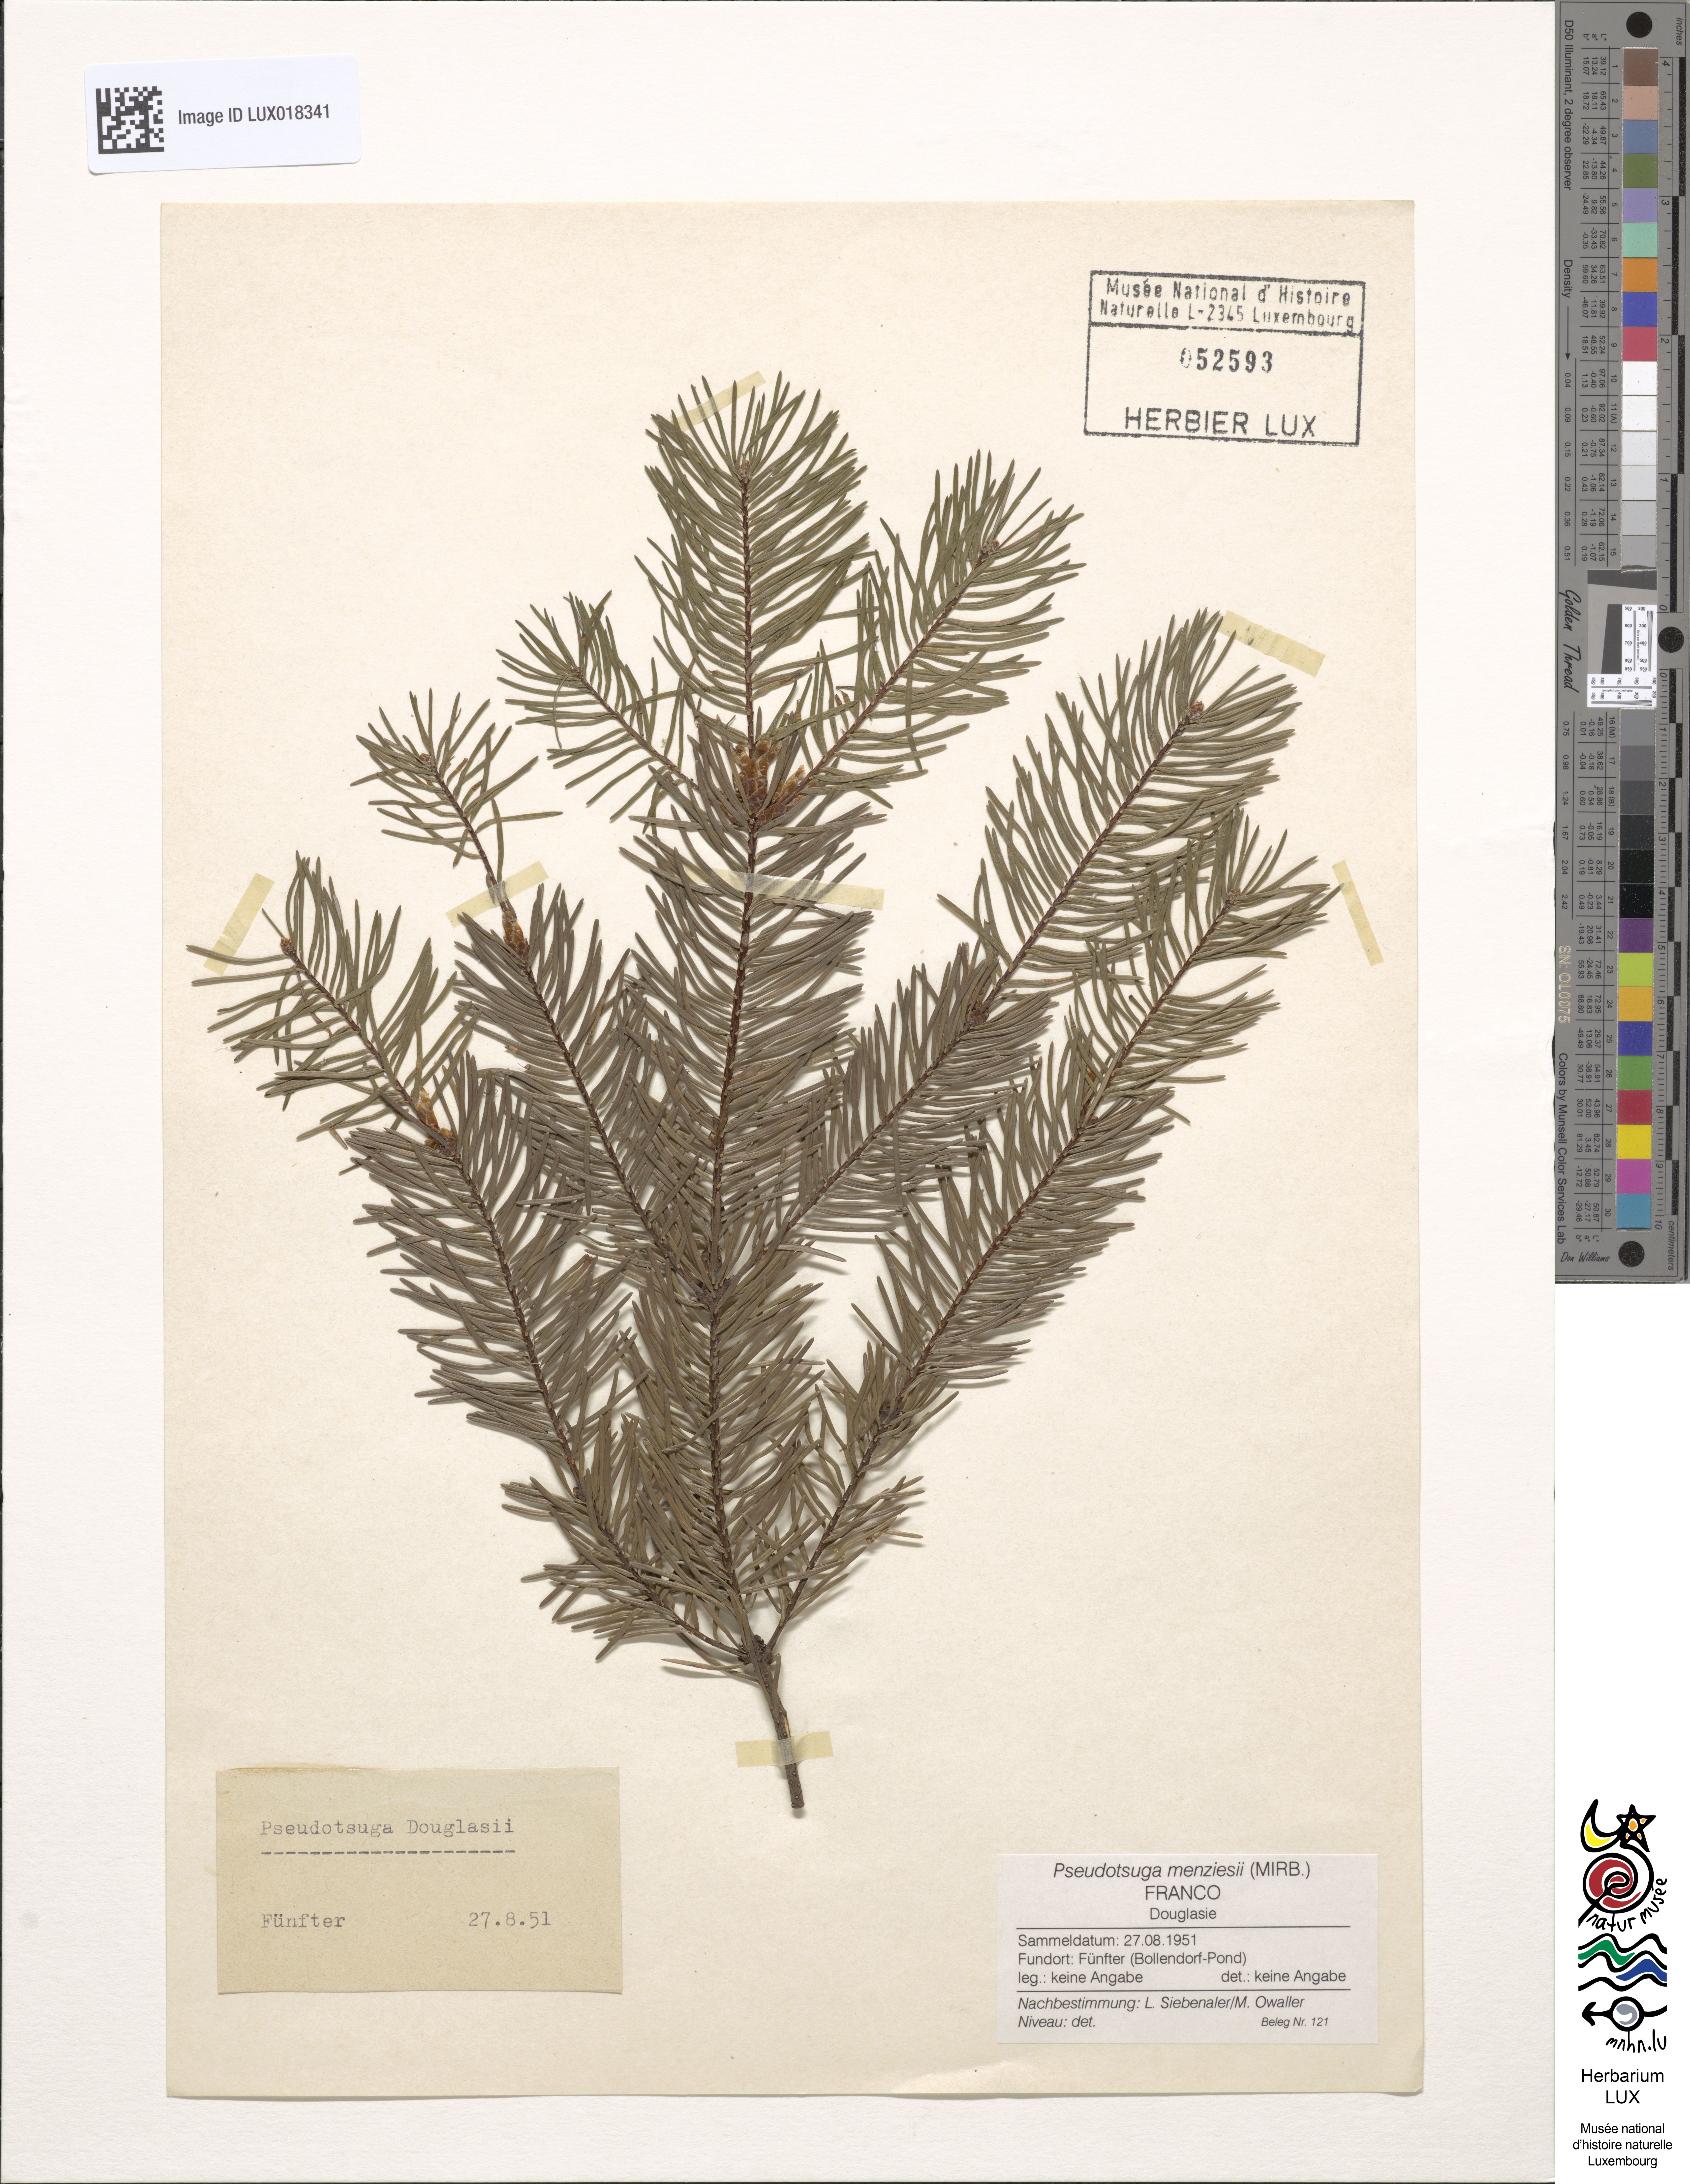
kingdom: Plantae
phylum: Tracheophyta
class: Pinopsida
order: Pinales
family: Pinaceae
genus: Pseudotsuga
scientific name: Pseudotsuga menziesii
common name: Douglas fir
